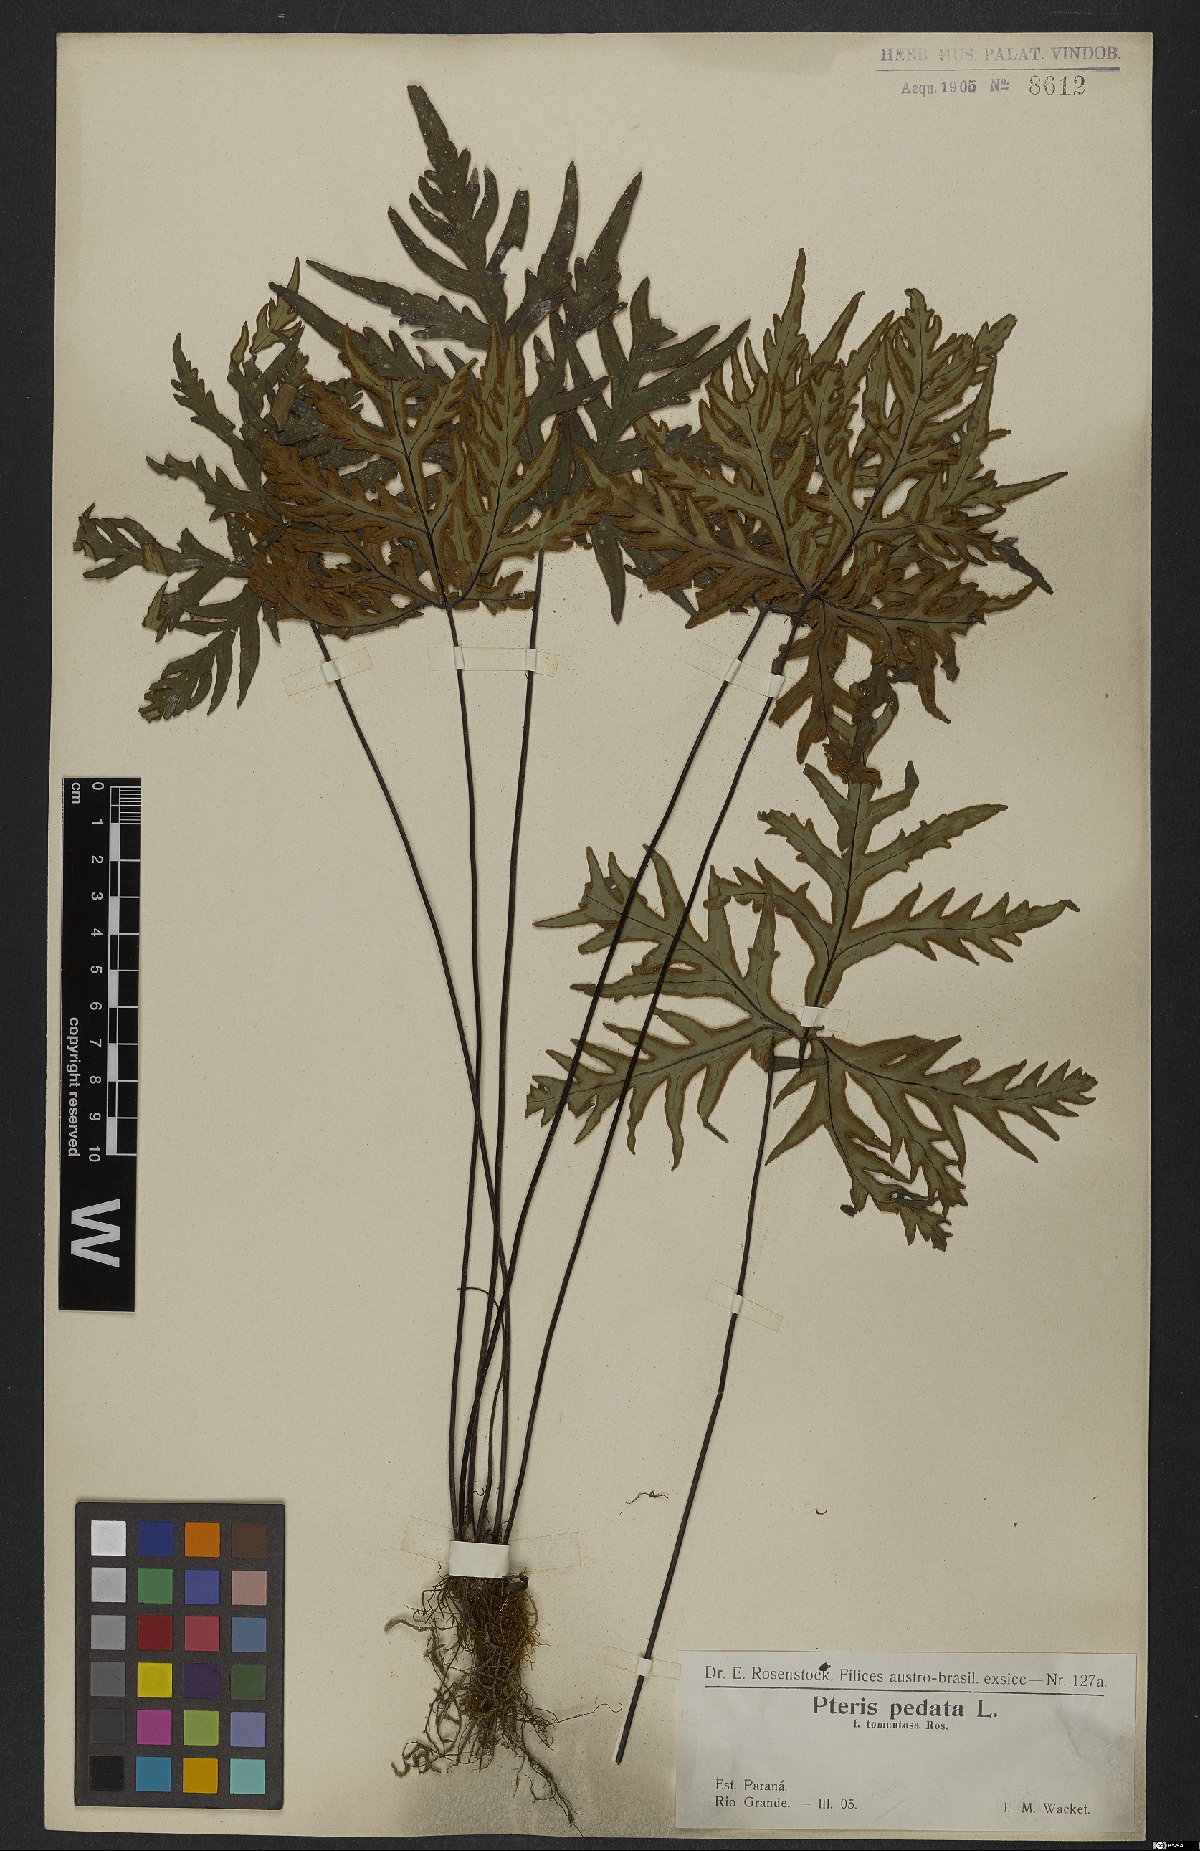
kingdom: Plantae
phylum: Tracheophyta
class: Polypodiopsida
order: Polypodiales
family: Pteridaceae
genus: Doryopteris
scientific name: Doryopteris pedata
